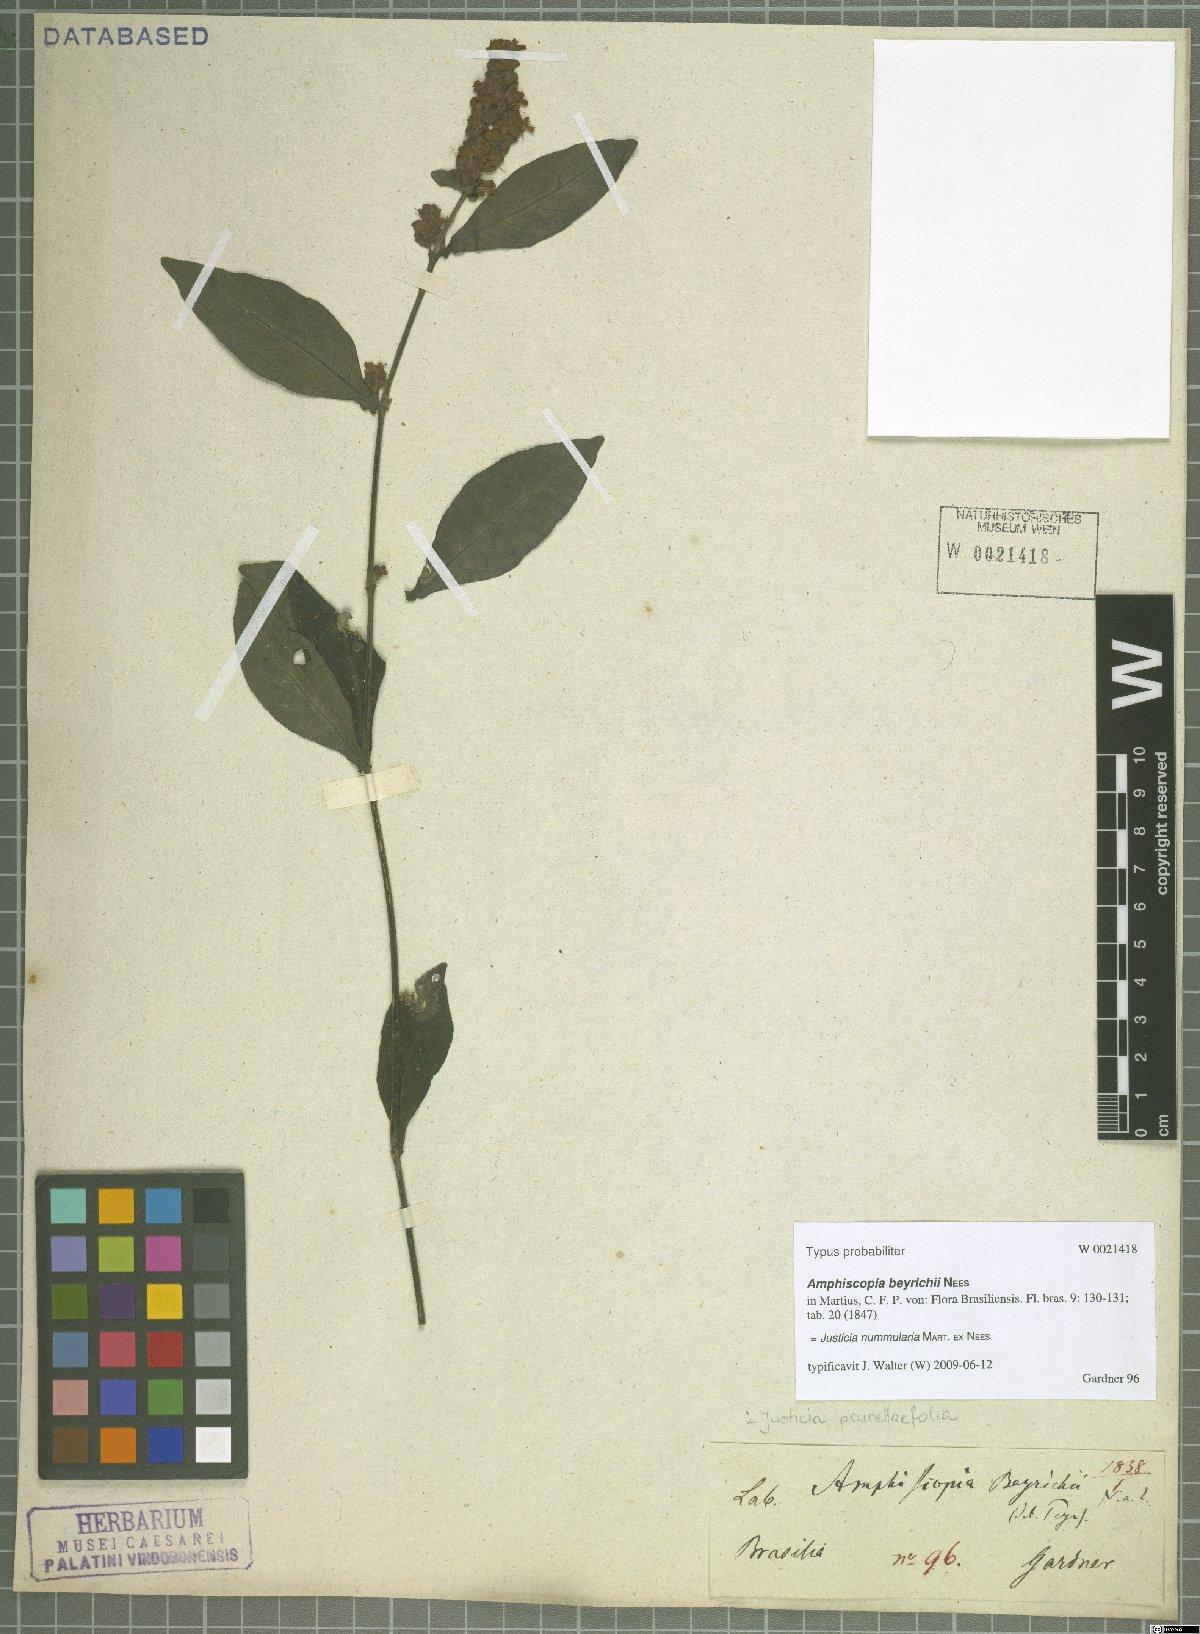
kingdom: Plantae
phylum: Tracheophyta
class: Magnoliopsida
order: Lamiales
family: Acanthaceae
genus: Dianthera
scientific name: Dianthera brasiliensis
